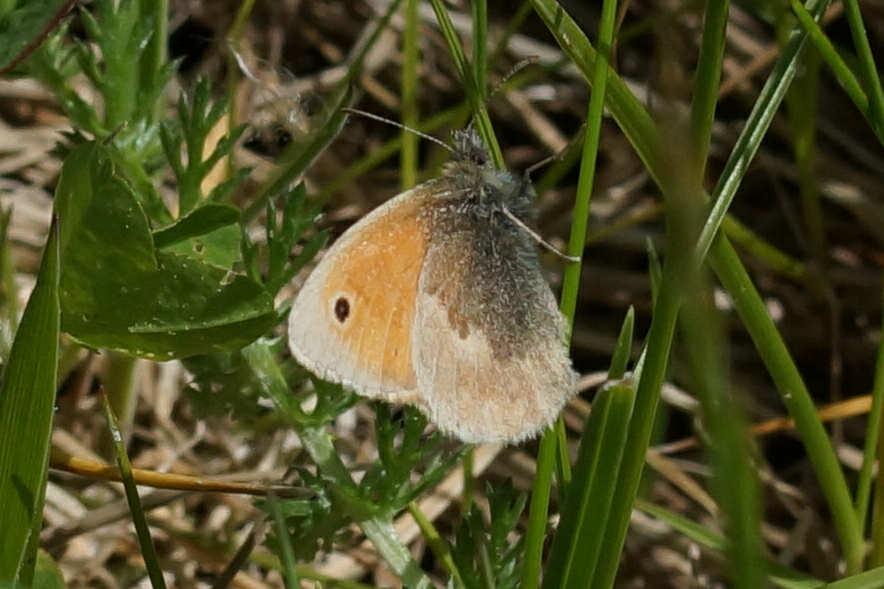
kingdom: Animalia
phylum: Arthropoda
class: Insecta
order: Lepidoptera
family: Nymphalidae
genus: Coenonympha
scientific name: Coenonympha pamphilus
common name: Okkergul randøje
